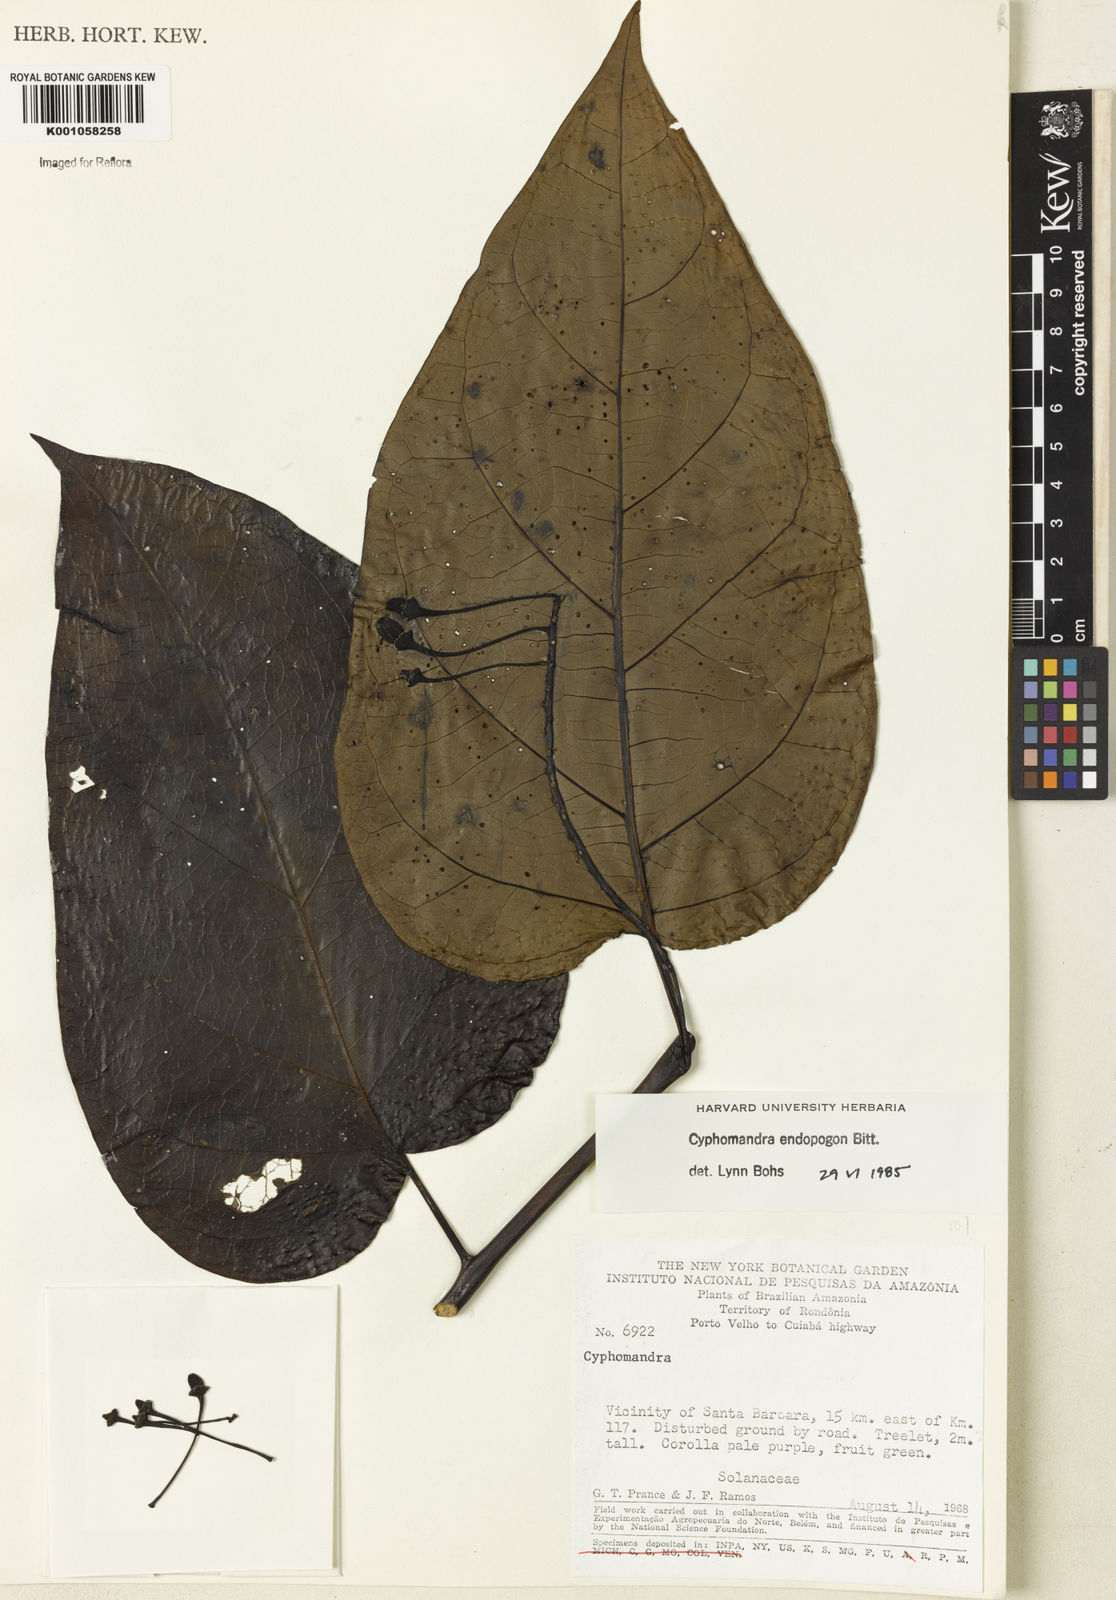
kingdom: Plantae
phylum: Tracheophyta
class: Magnoliopsida
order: Solanales
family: Solanaceae
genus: Solanum
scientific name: Solanum endopogon
